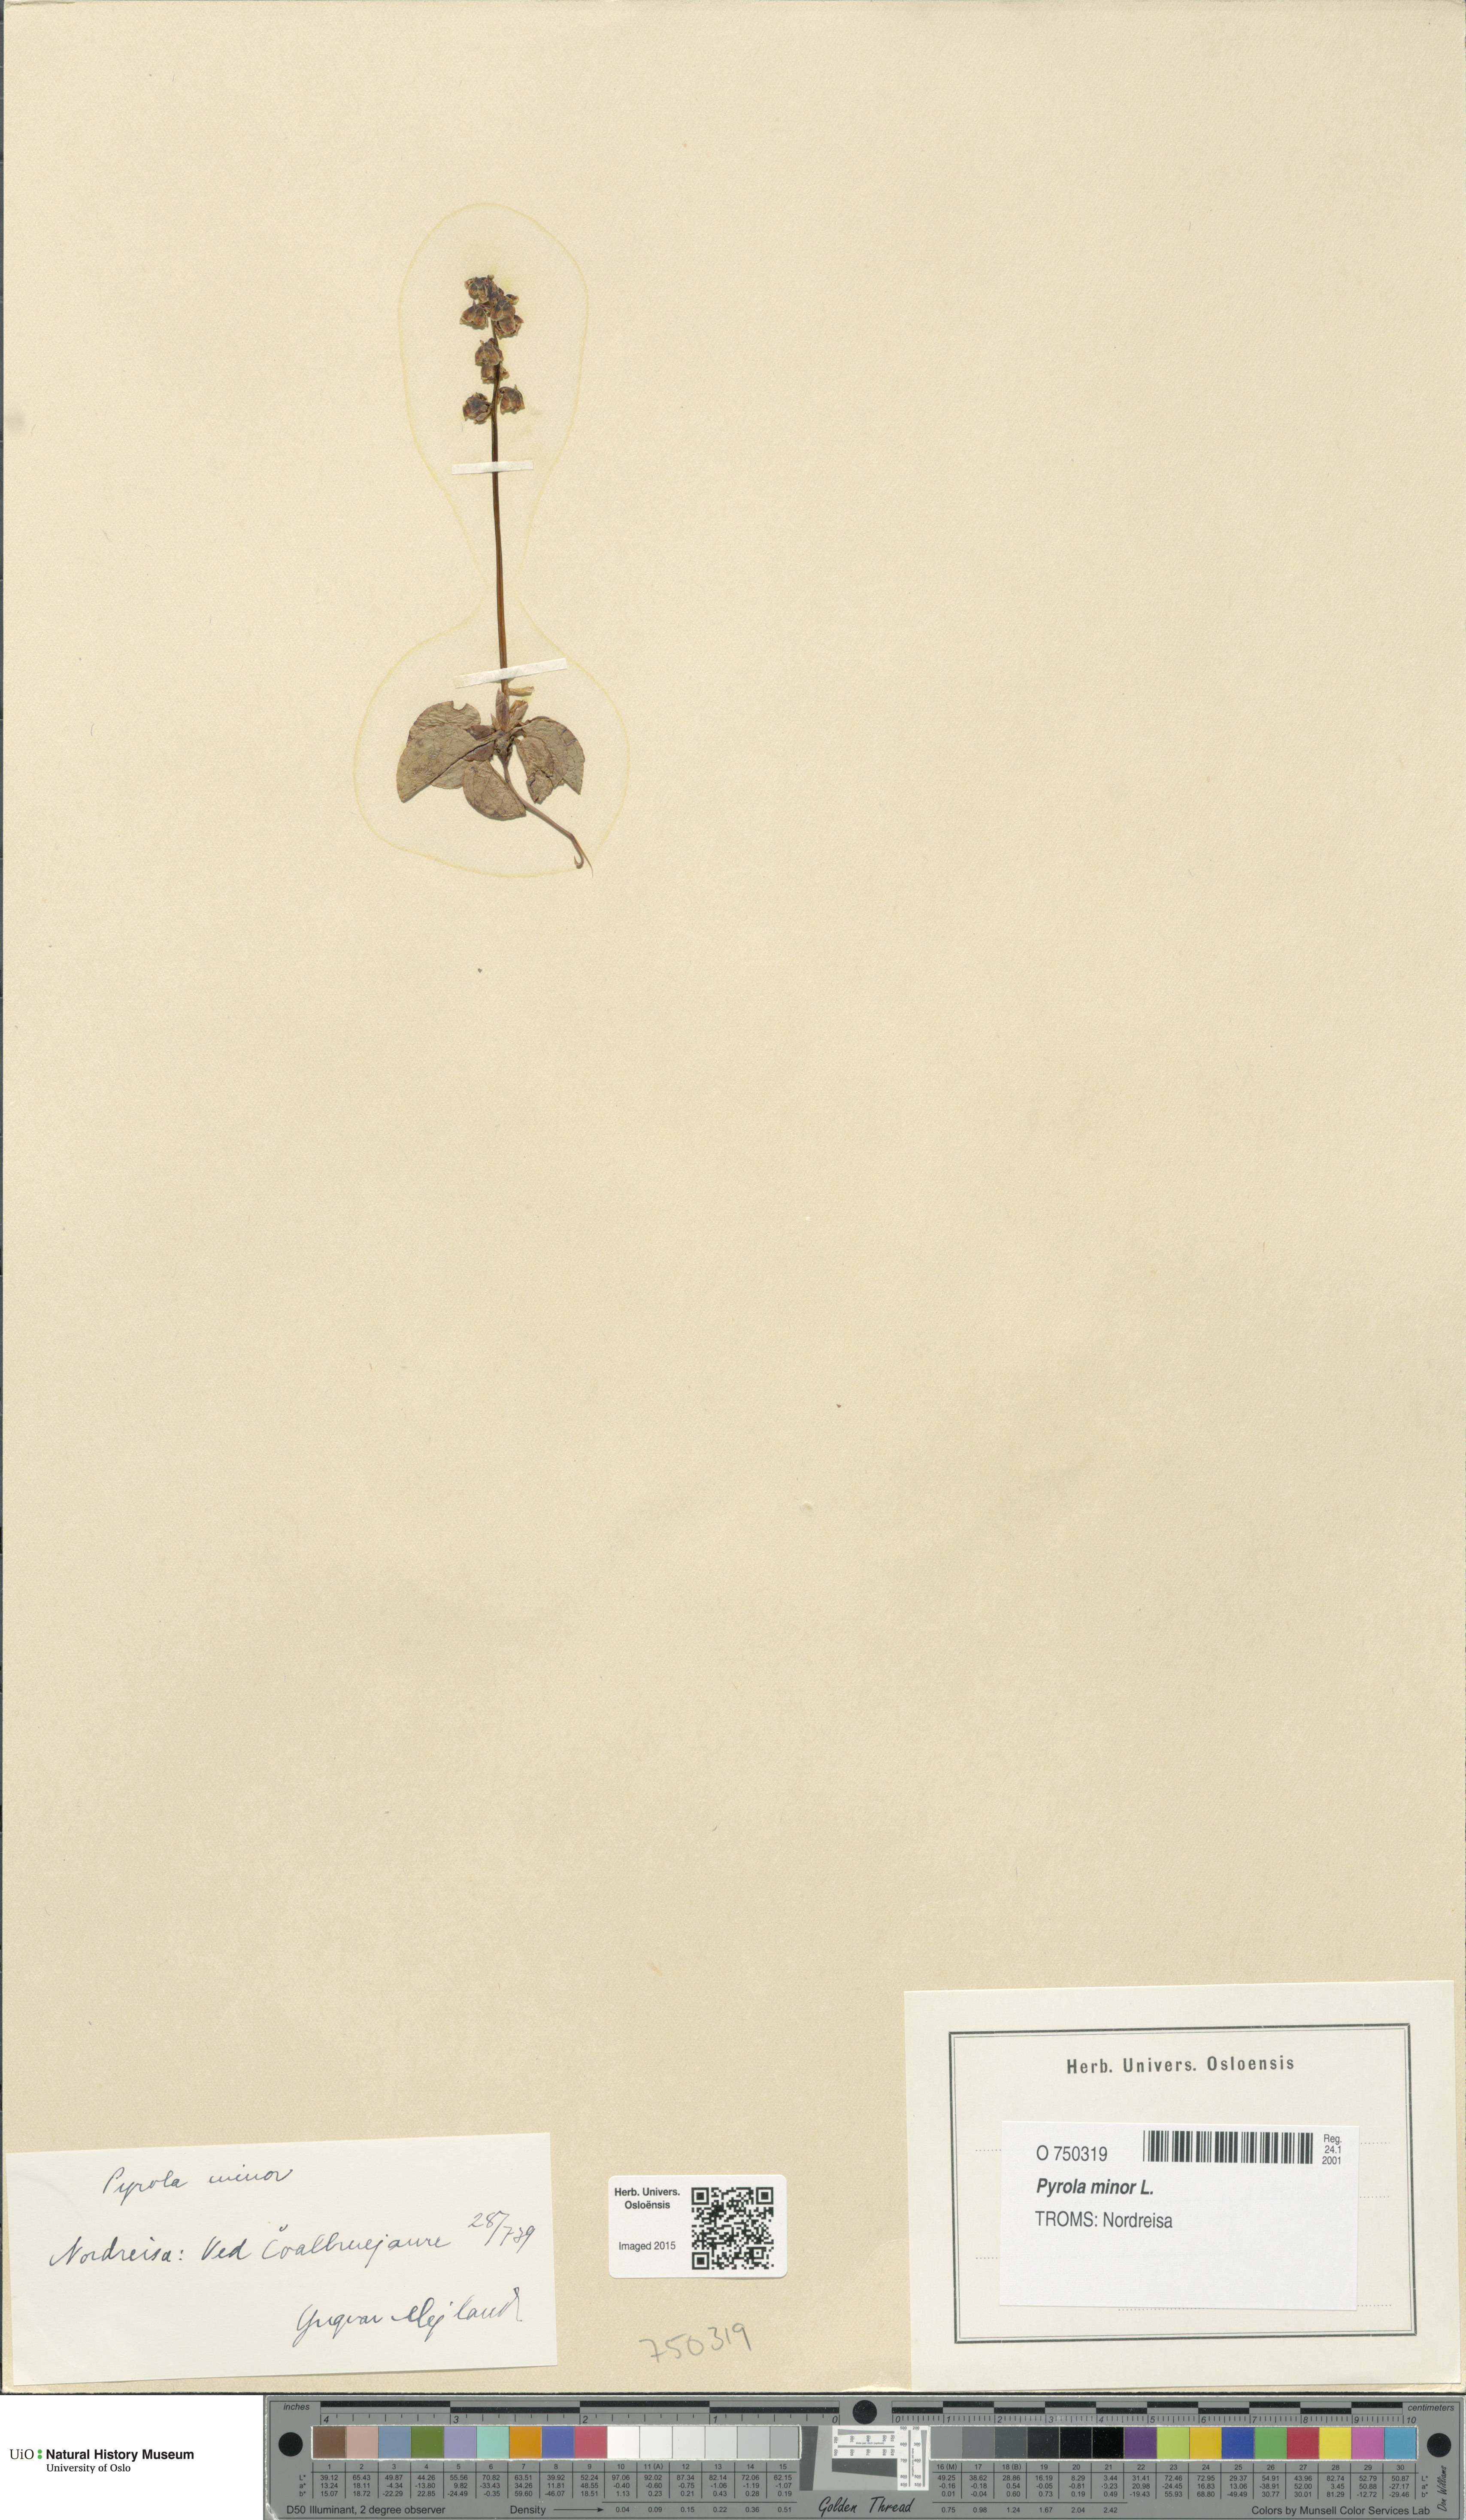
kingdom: Plantae
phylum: Tracheophyta
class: Magnoliopsida
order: Ericales
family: Ericaceae
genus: Pyrola
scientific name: Pyrola minor
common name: Common wintergreen
